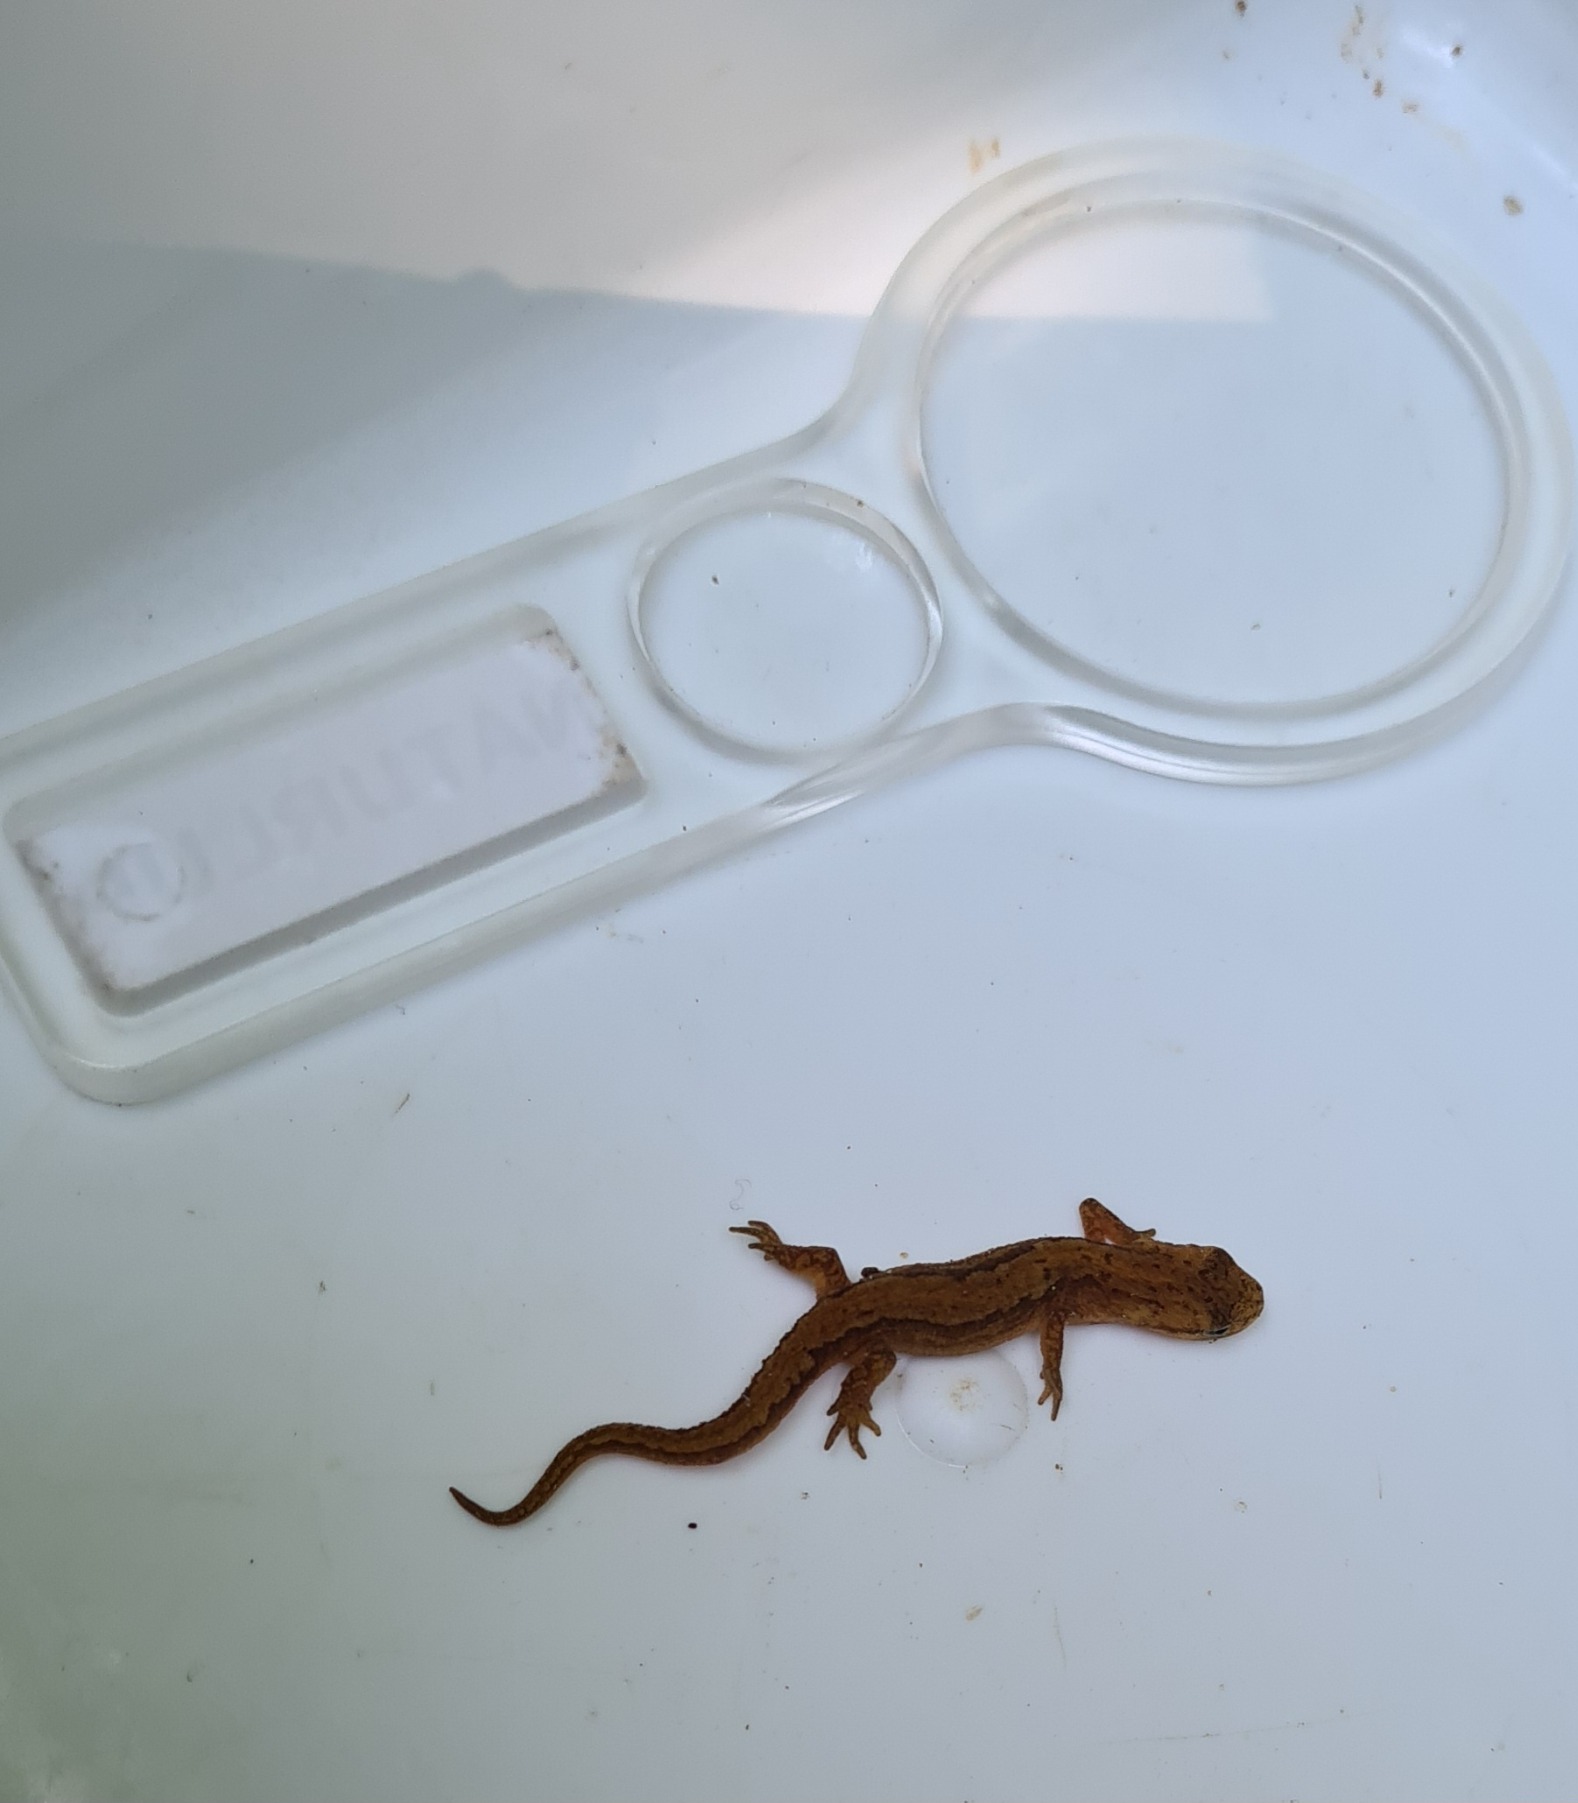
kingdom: Animalia
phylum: Chordata
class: Amphibia
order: Caudata
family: Salamandridae
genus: Lissotriton
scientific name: Lissotriton vulgaris
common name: Lille vandsalamander
